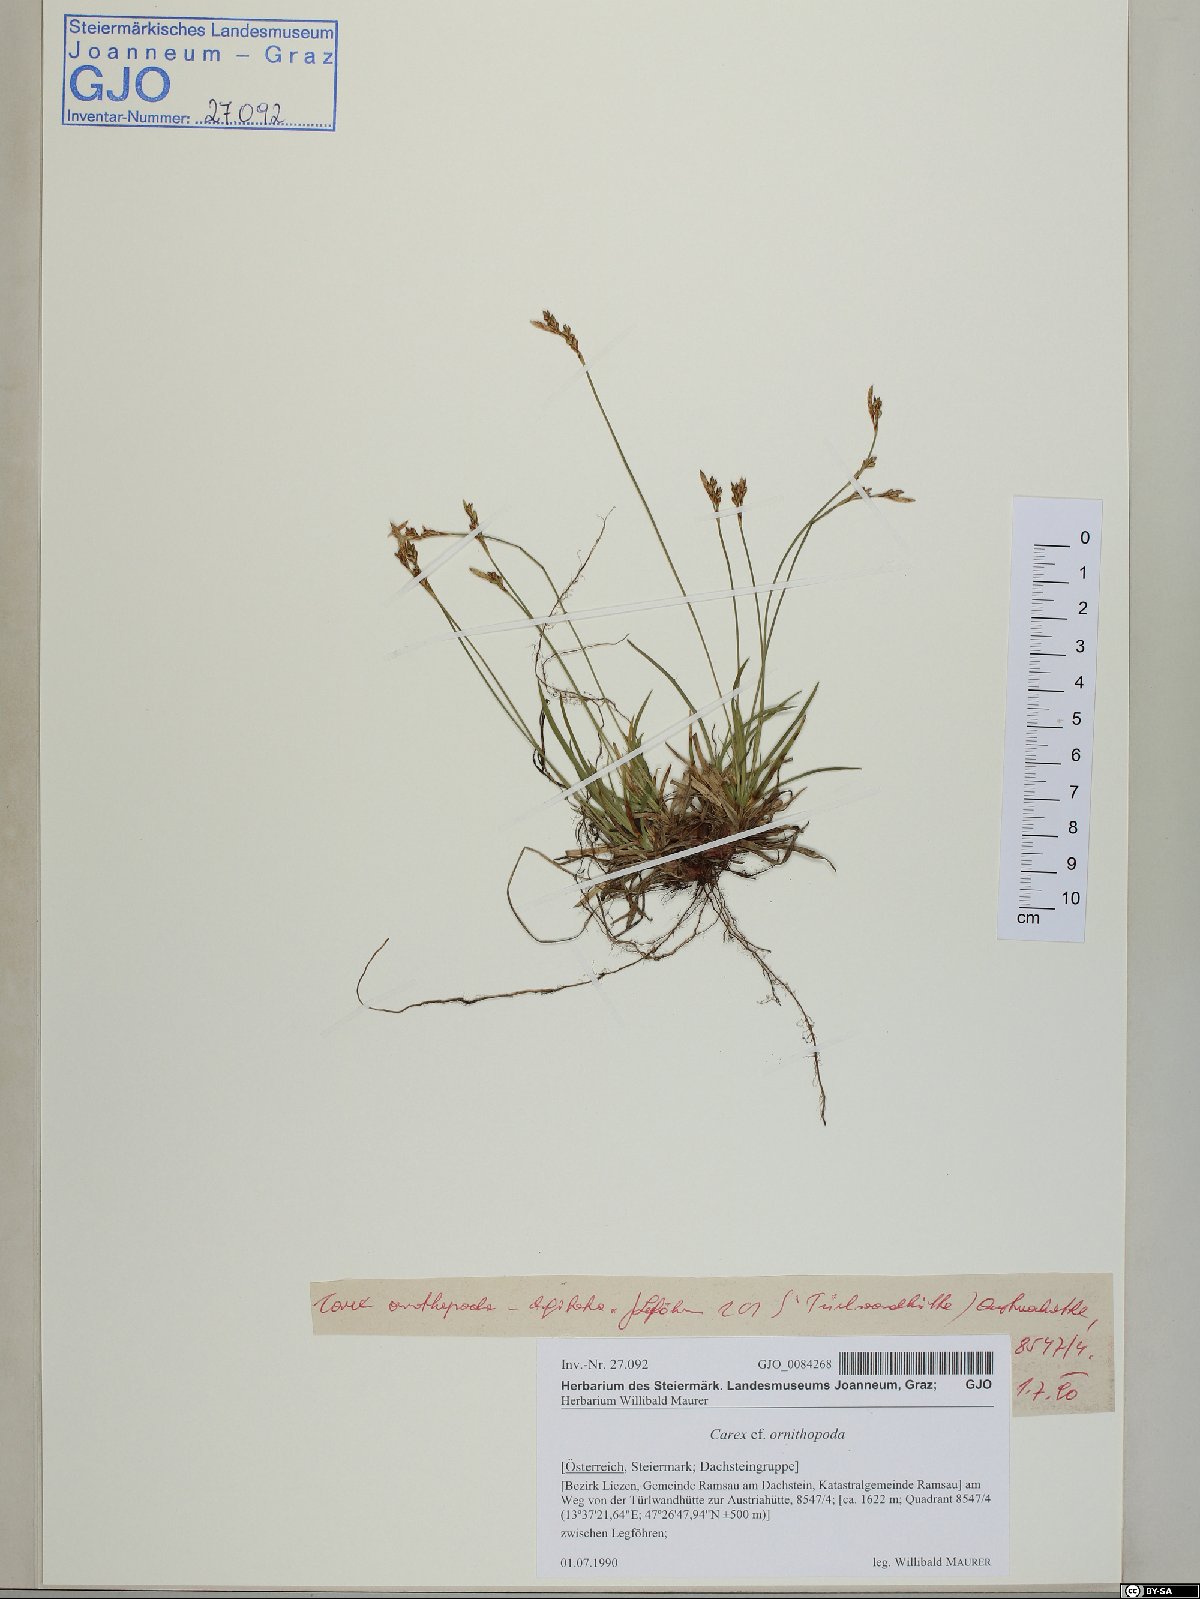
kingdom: Plantae
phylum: Tracheophyta
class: Liliopsida
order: Poales
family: Cyperaceae
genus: Carex
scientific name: Carex ornithopoda
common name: Bird's-foot sedge
